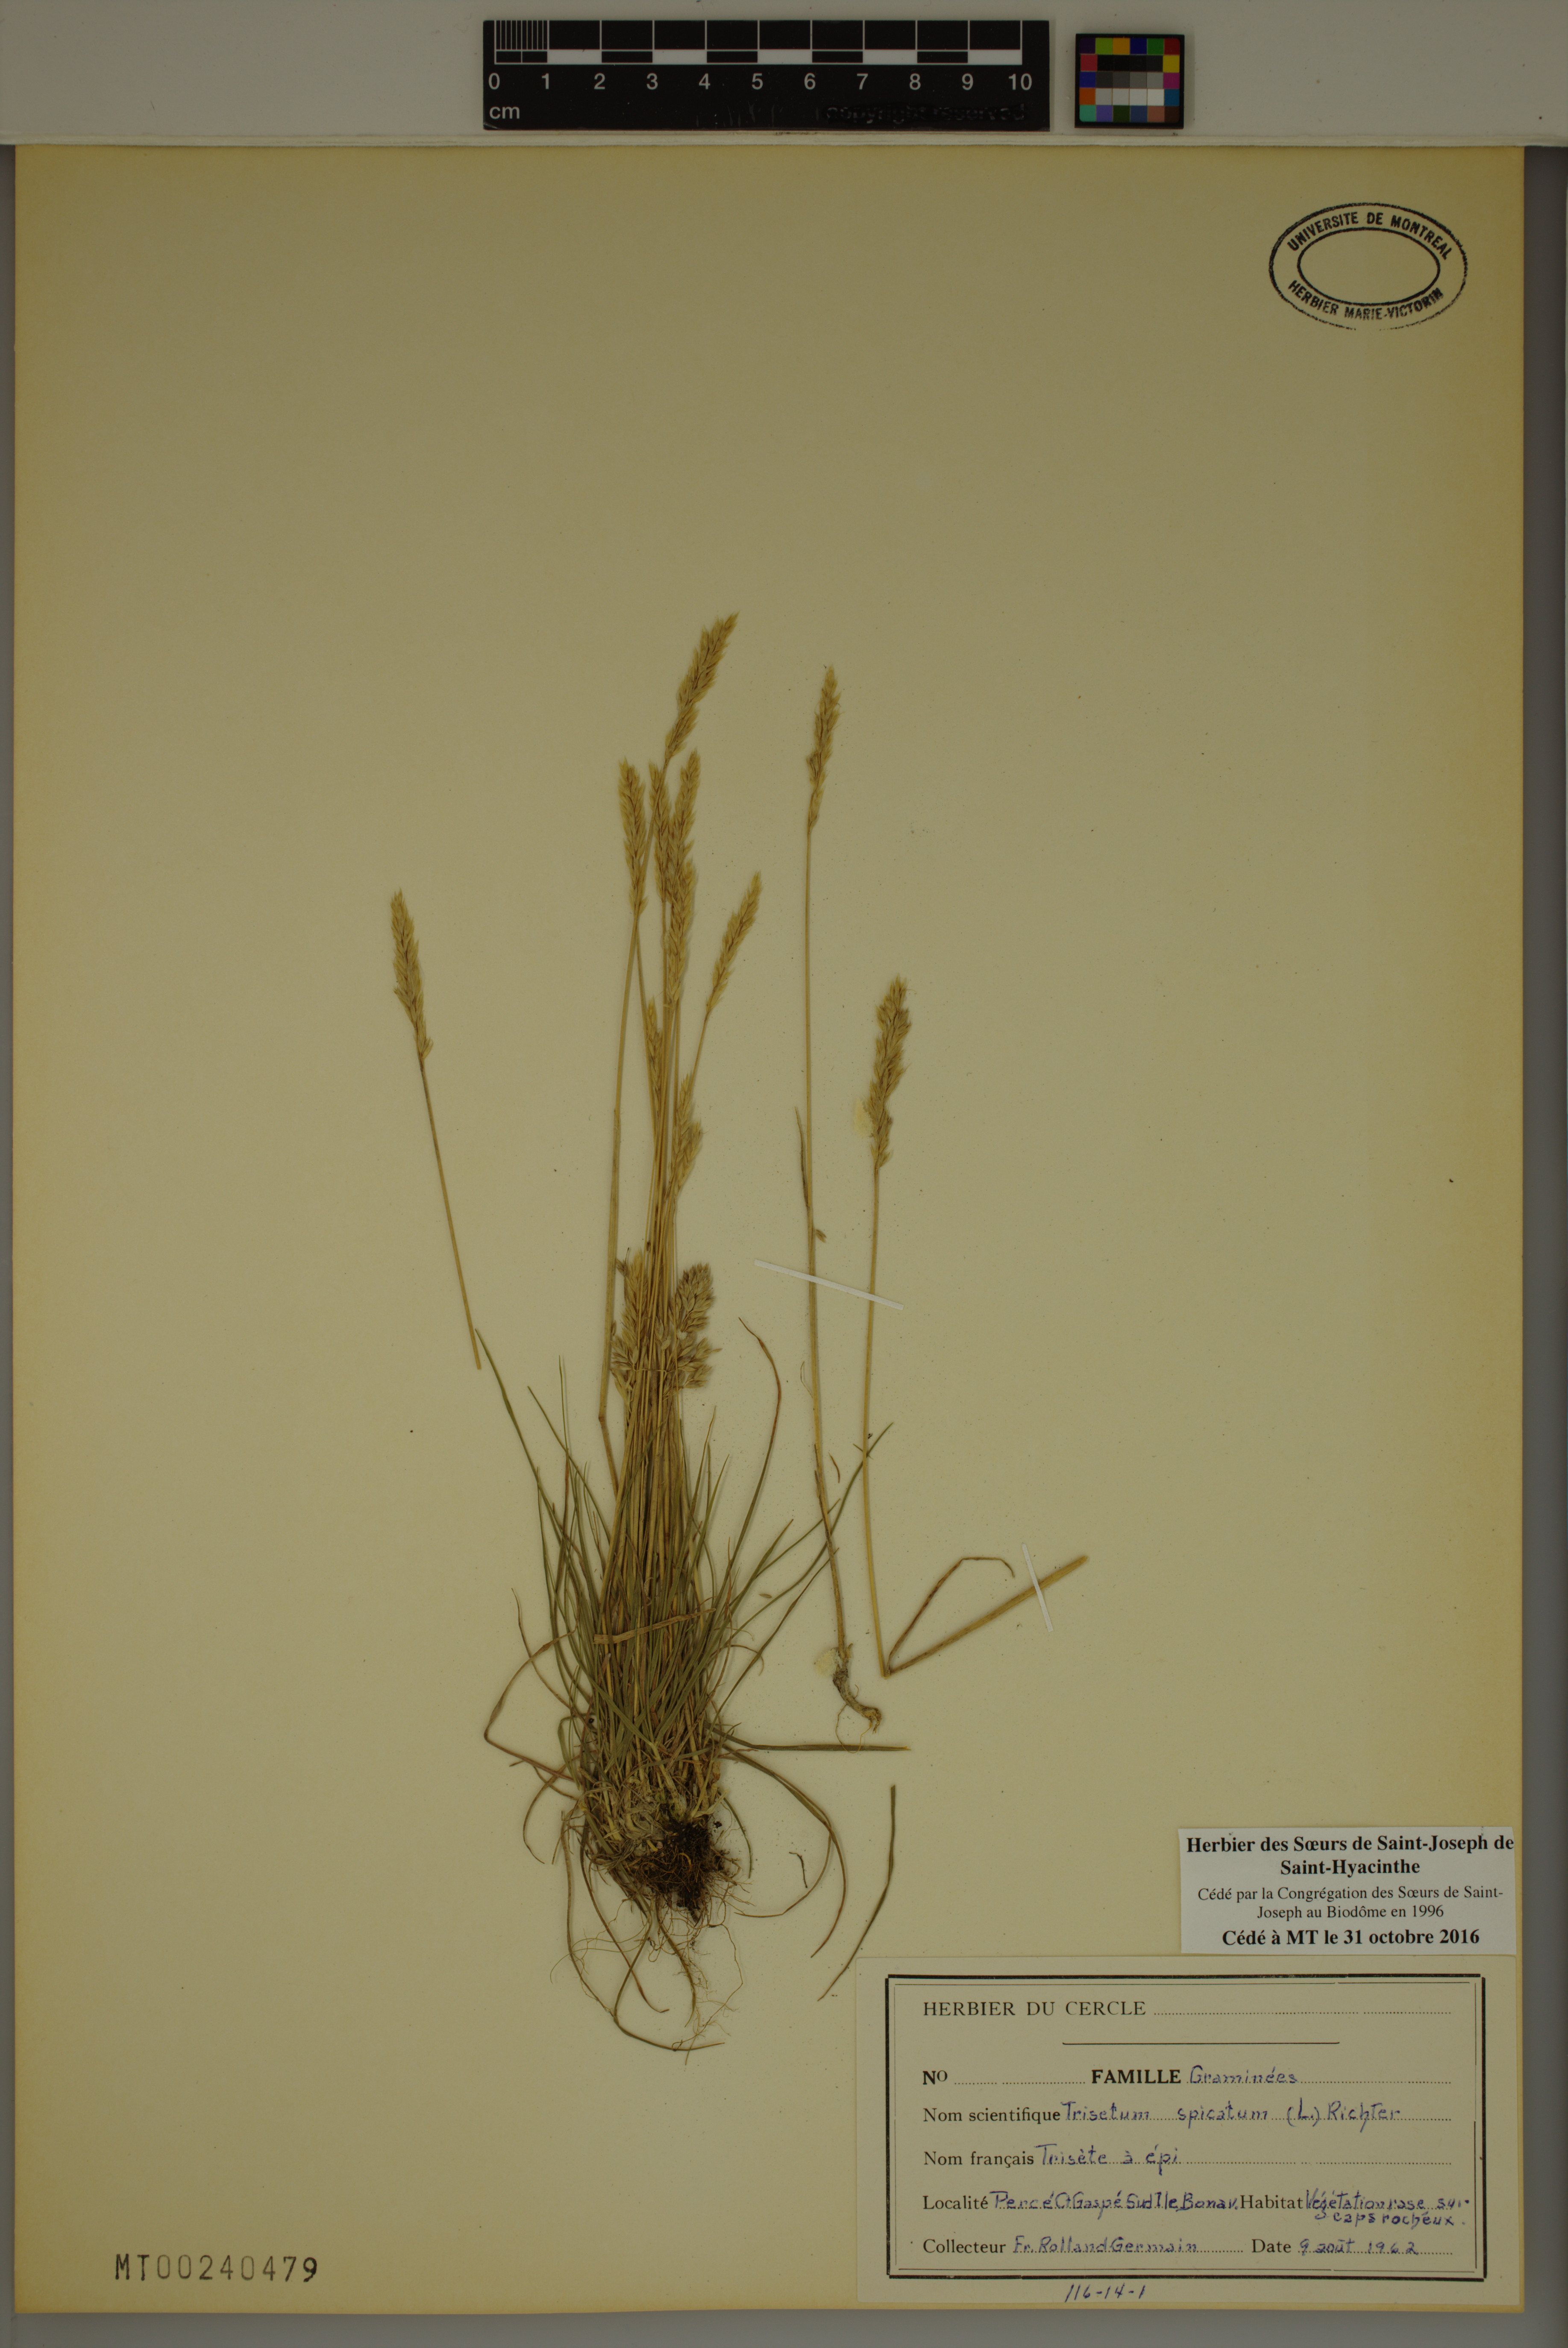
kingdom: Plantae
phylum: Tracheophyta
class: Liliopsida
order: Poales
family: Poaceae
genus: Koeleria
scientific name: Koeleria spicata
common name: Mountain trisetum
